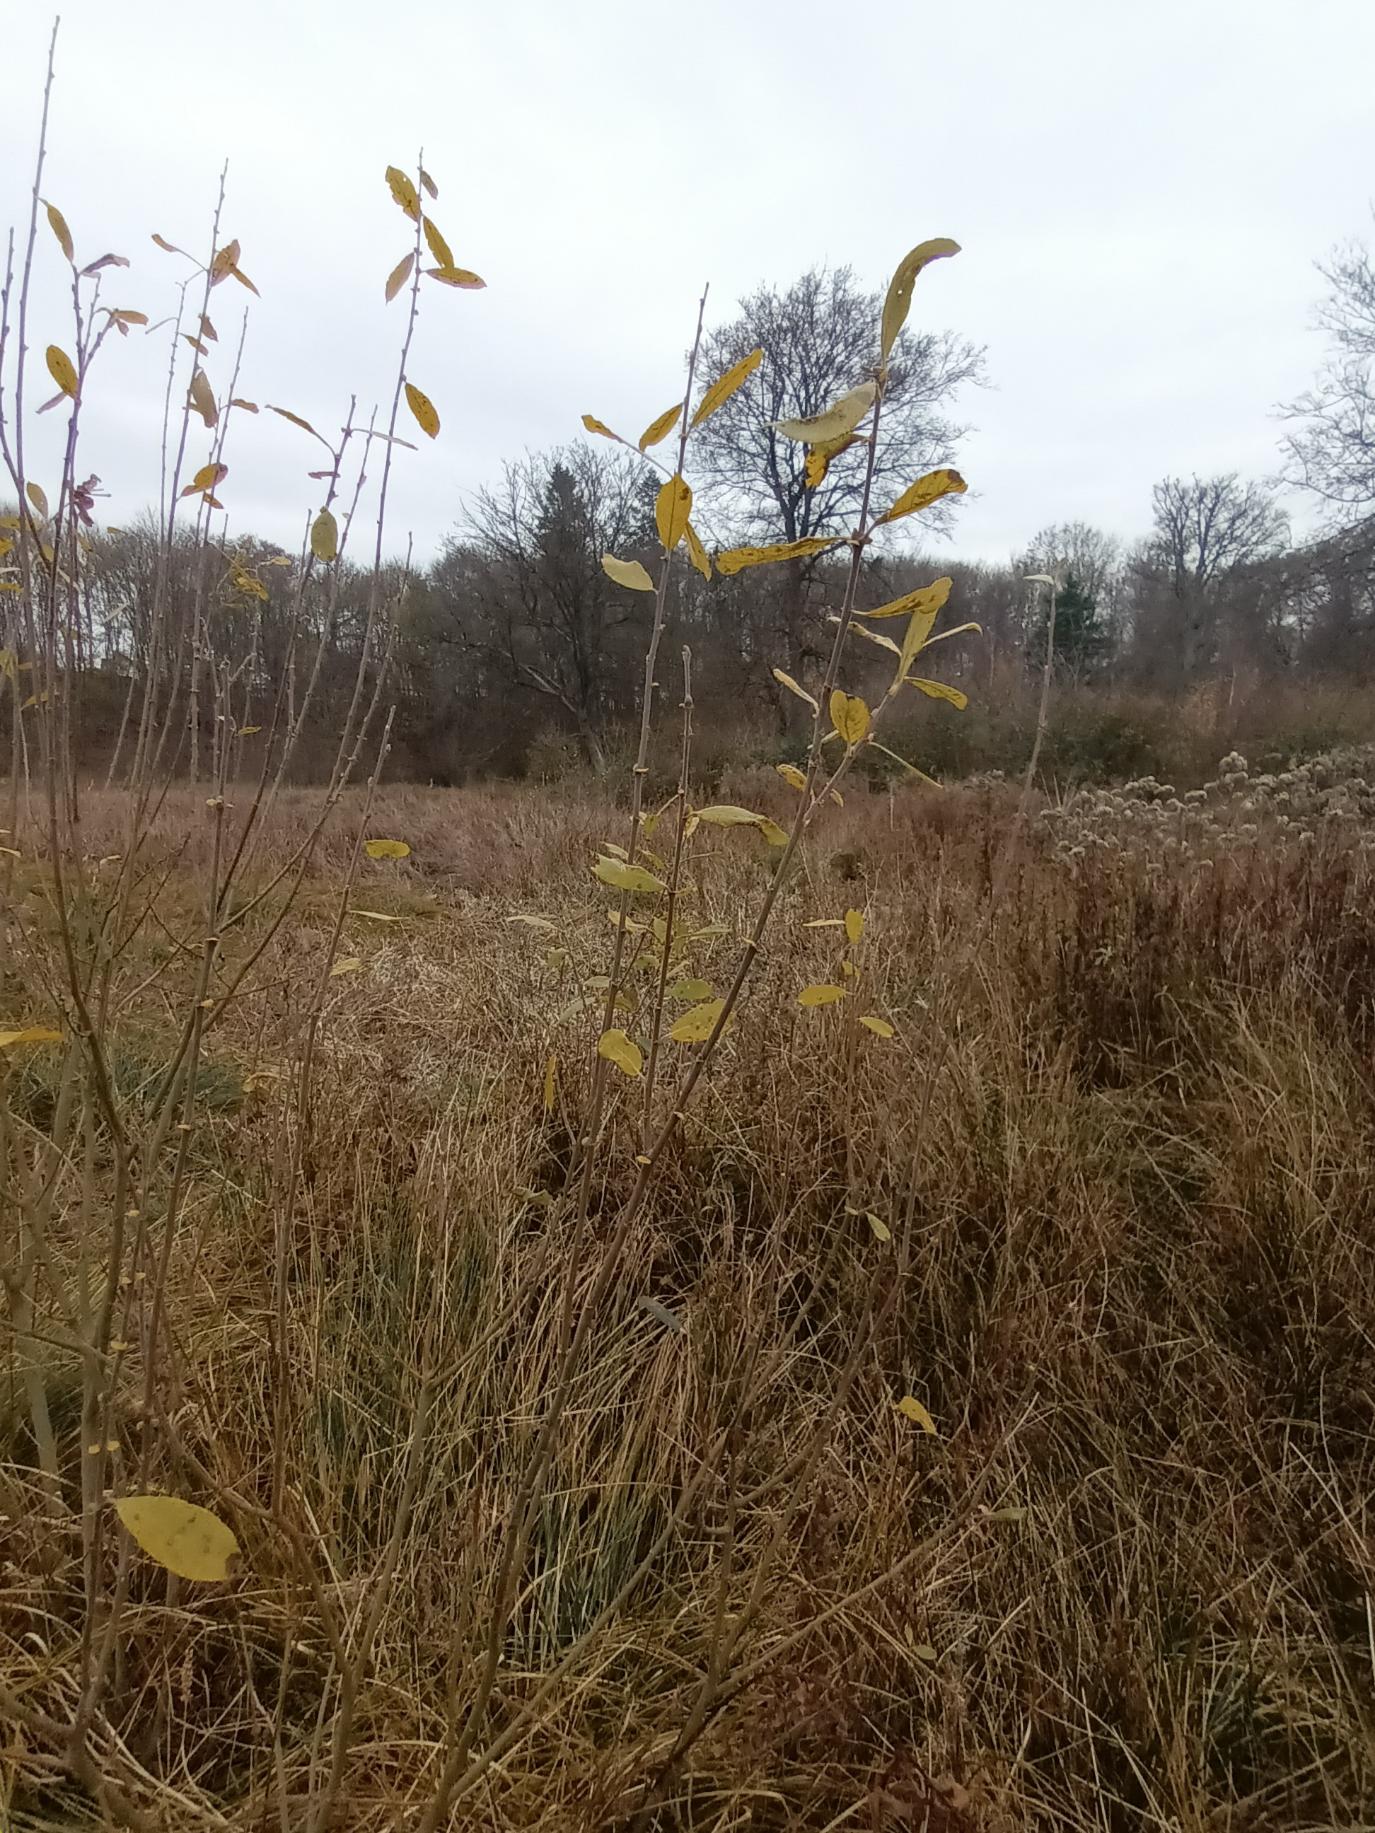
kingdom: Plantae
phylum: Tracheophyta
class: Magnoliopsida
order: Malpighiales
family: Salicaceae
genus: Salix
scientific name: Salix cinerea
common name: Grå-pil
